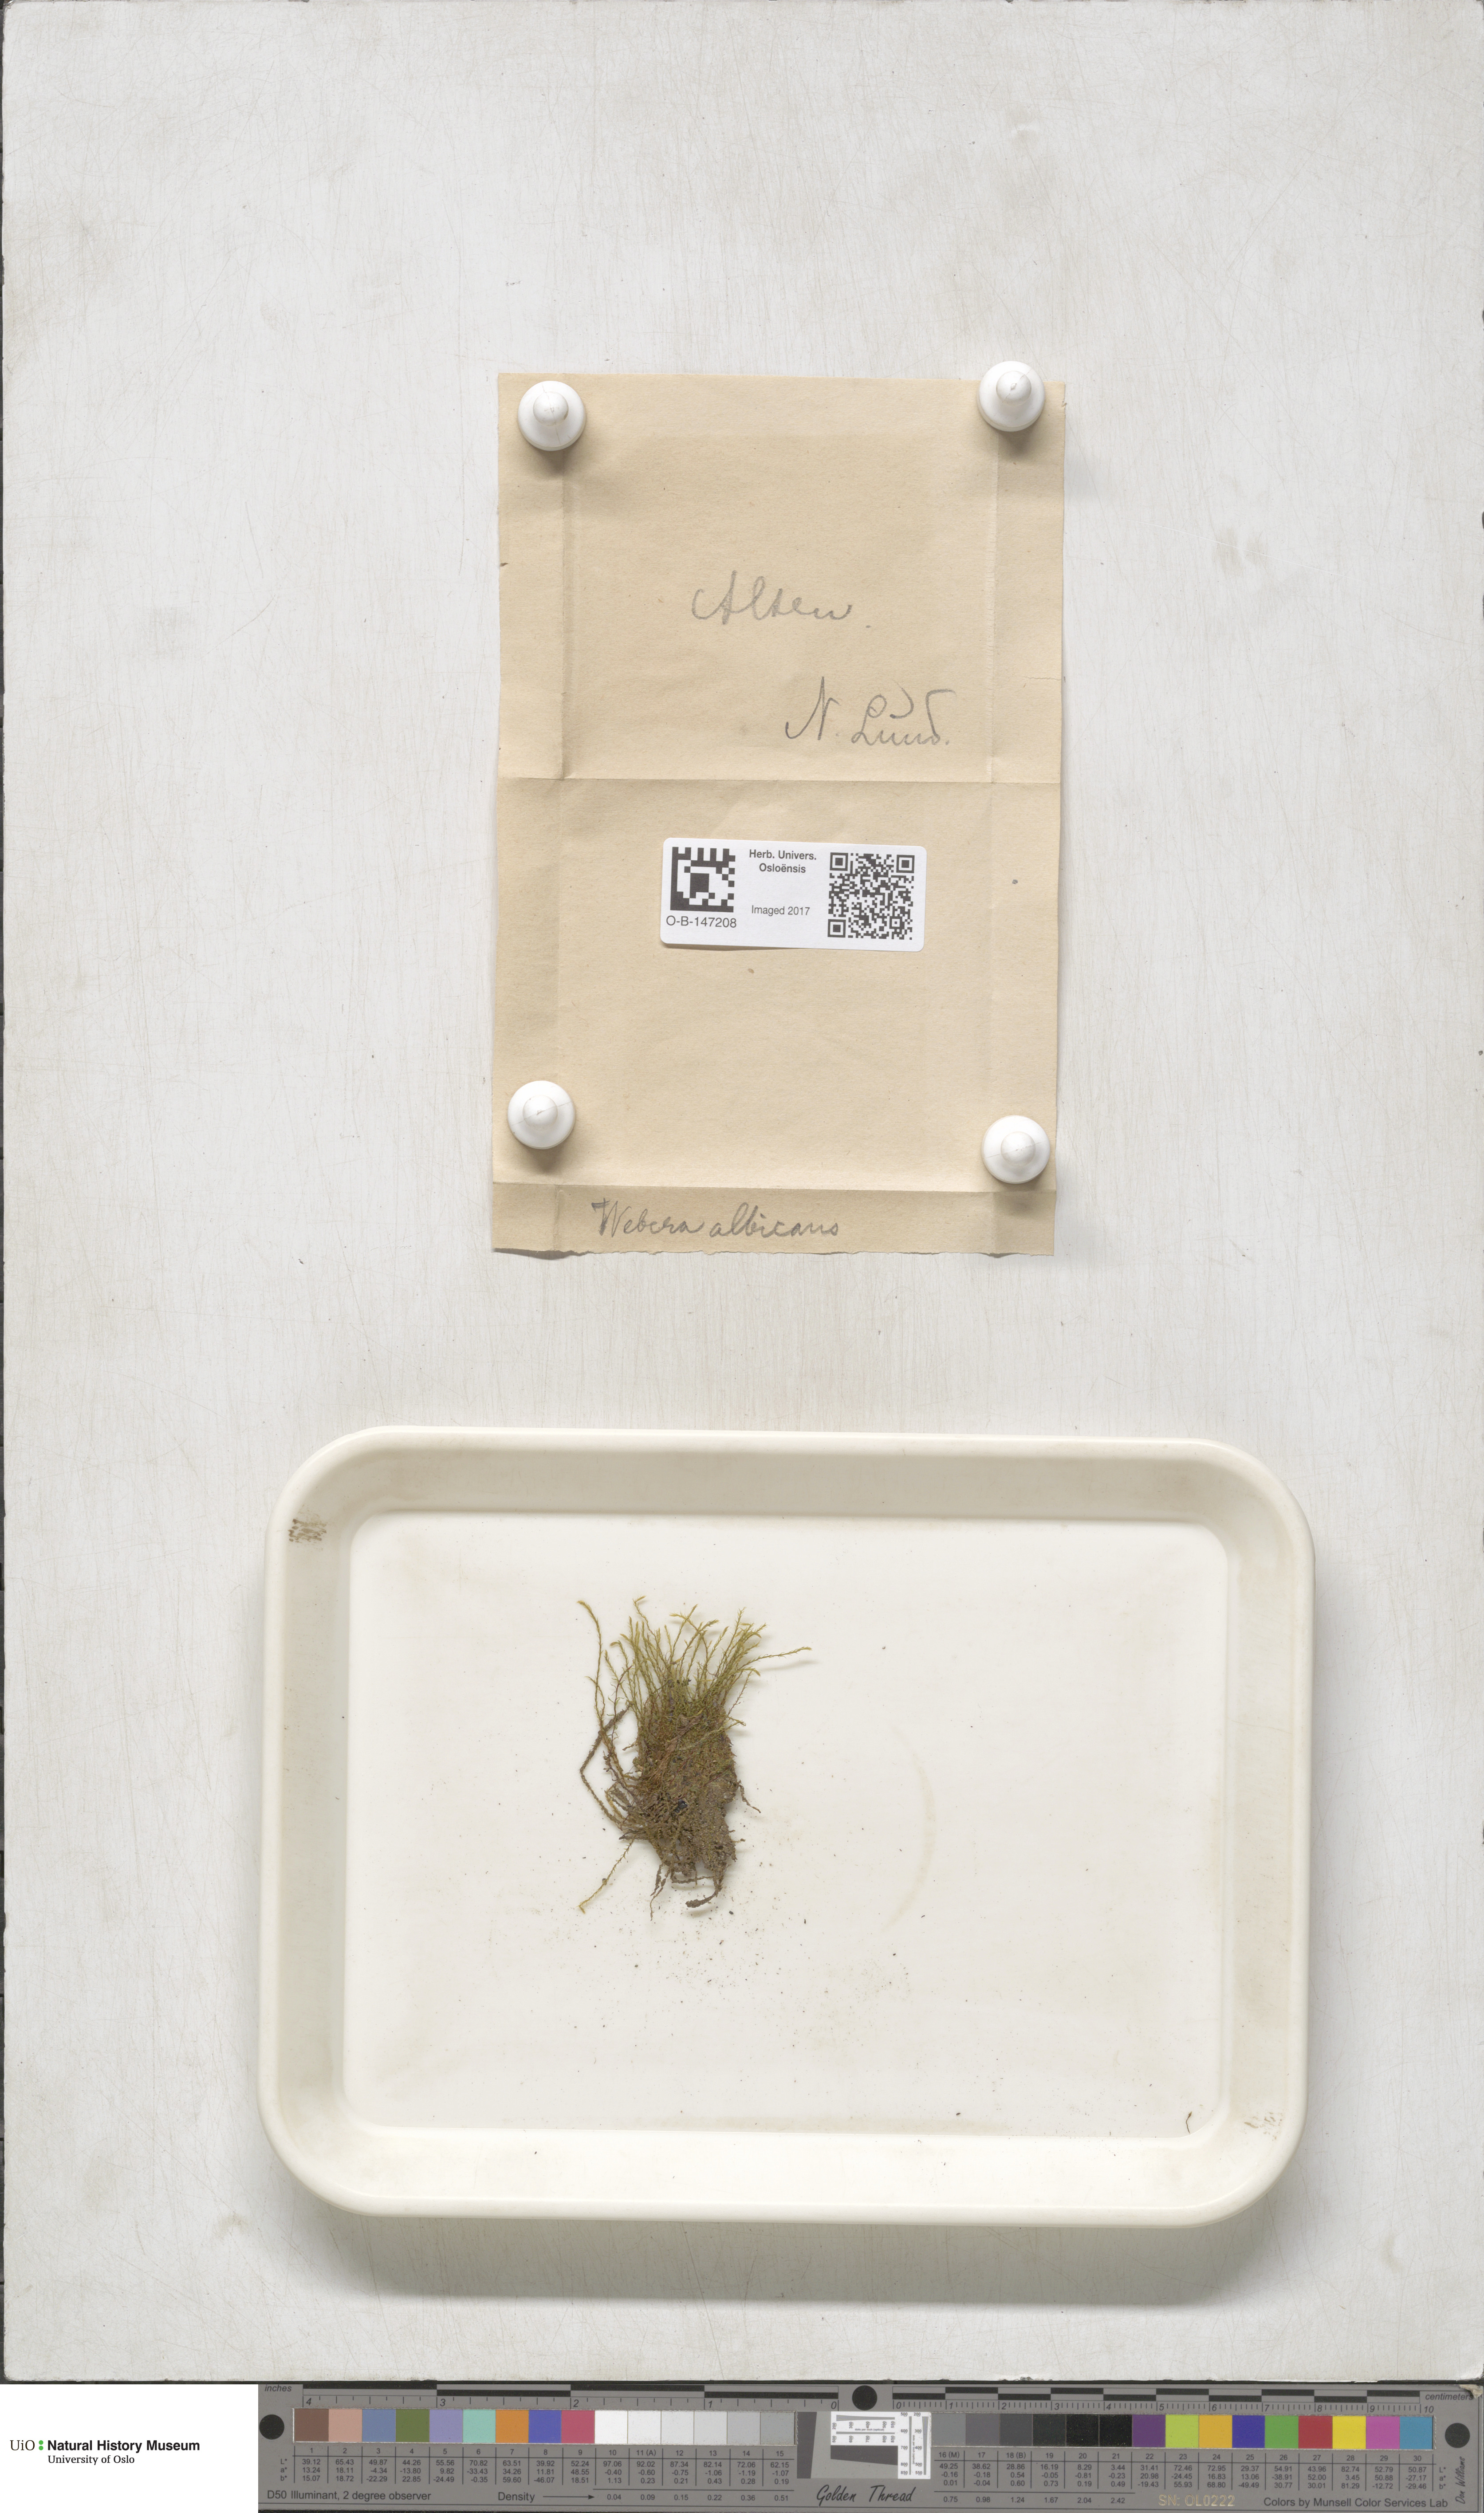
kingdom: Plantae
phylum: Bryophyta
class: Bryopsida
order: Bryales
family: Mniaceae
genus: Pohlia
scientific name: Pohlia wahlenbergii
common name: Wahlenberg's nodding moss
